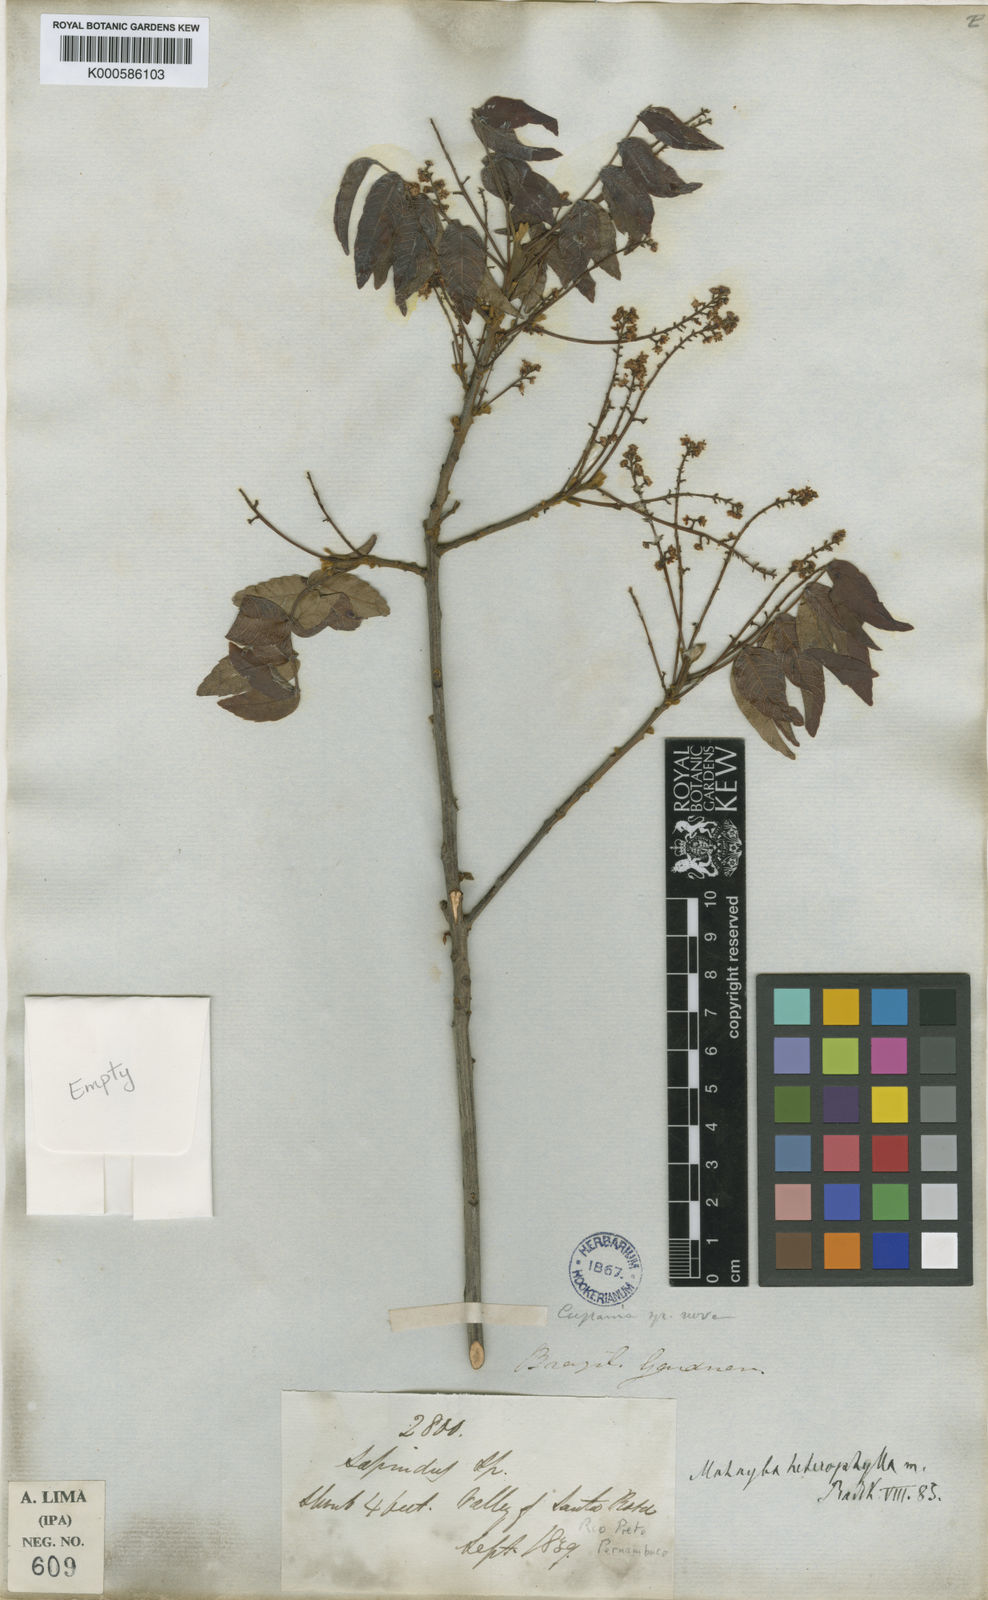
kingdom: Plantae
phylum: Tracheophyta
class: Magnoliopsida
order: Sapindales
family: Sapindaceae
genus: Matayba
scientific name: Matayba heterophylla
